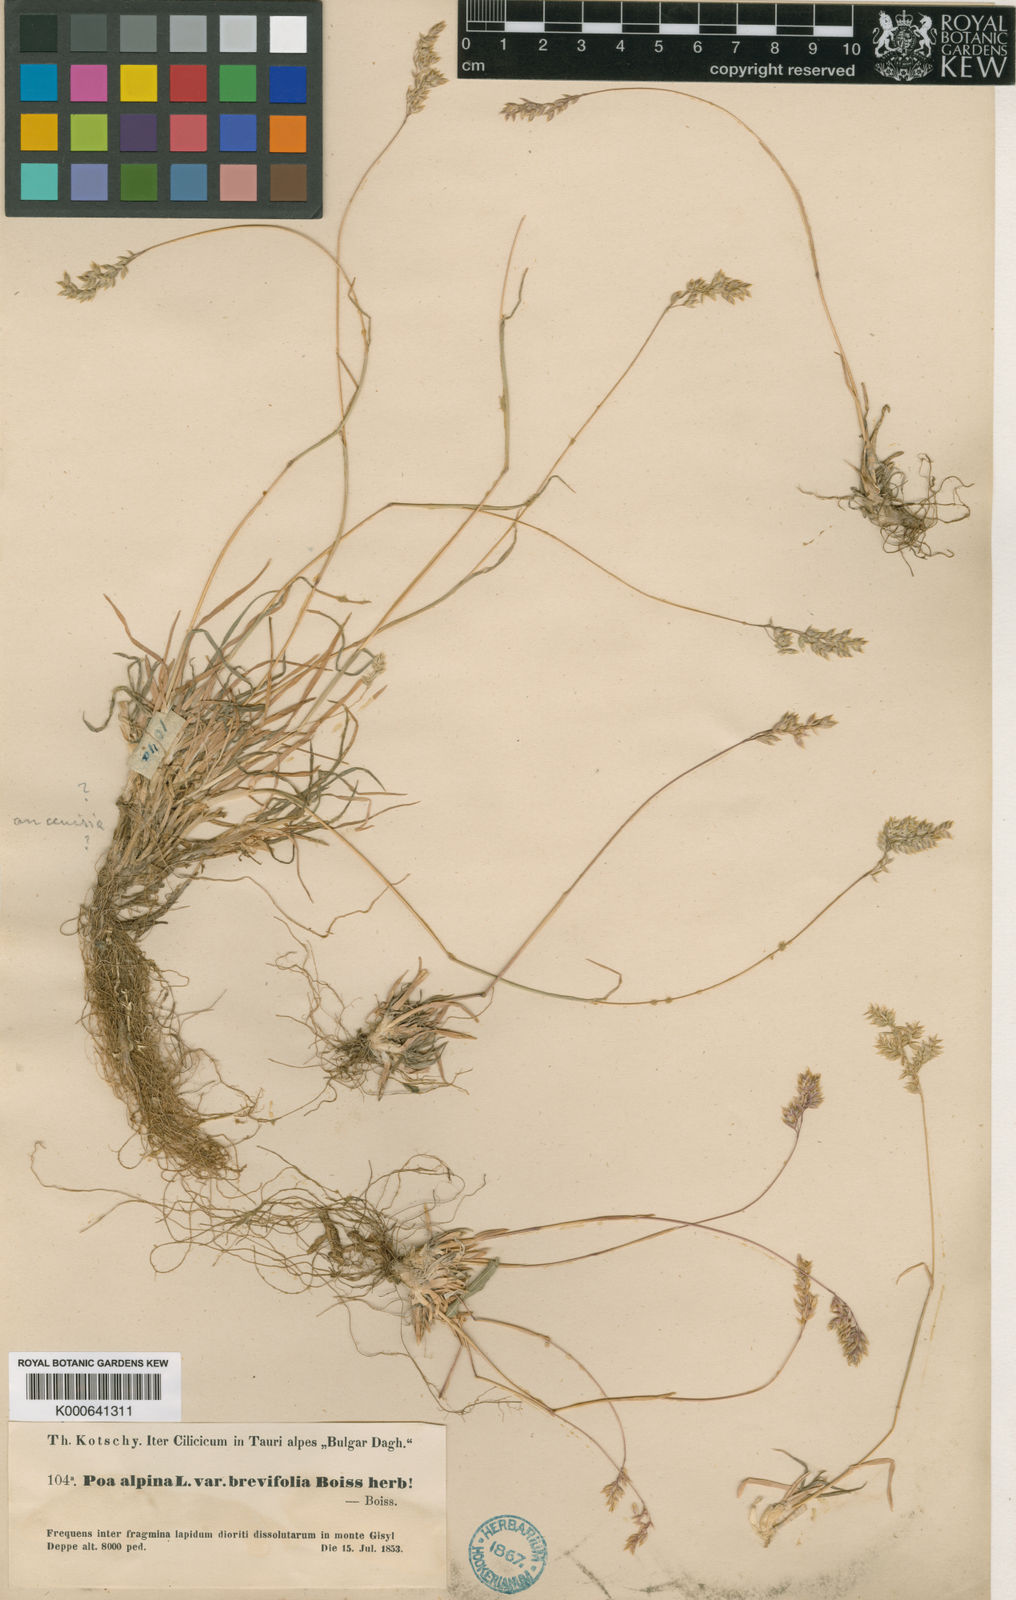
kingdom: Plantae
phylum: Tracheophyta
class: Liliopsida
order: Poales
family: Poaceae
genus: Poa
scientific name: Poa thessala
